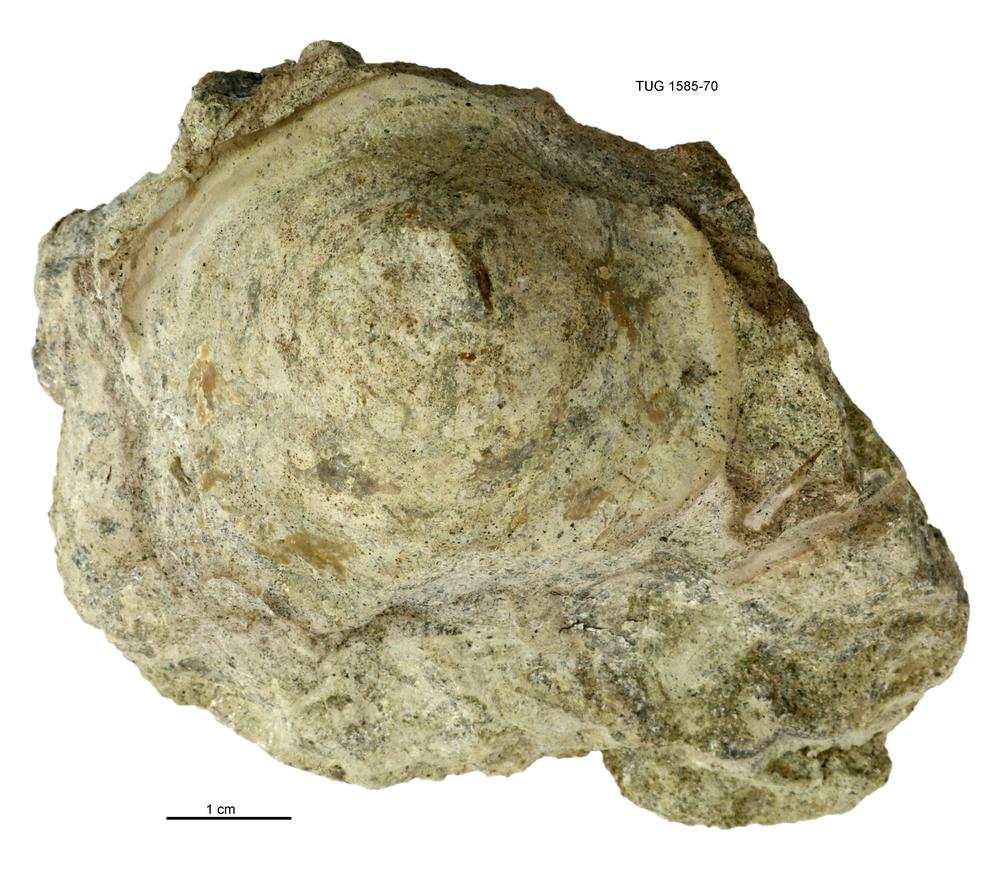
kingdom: Animalia
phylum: Mollusca
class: Monoplacophora
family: Metoptomatidae
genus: Metoptoma
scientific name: Metoptoma
